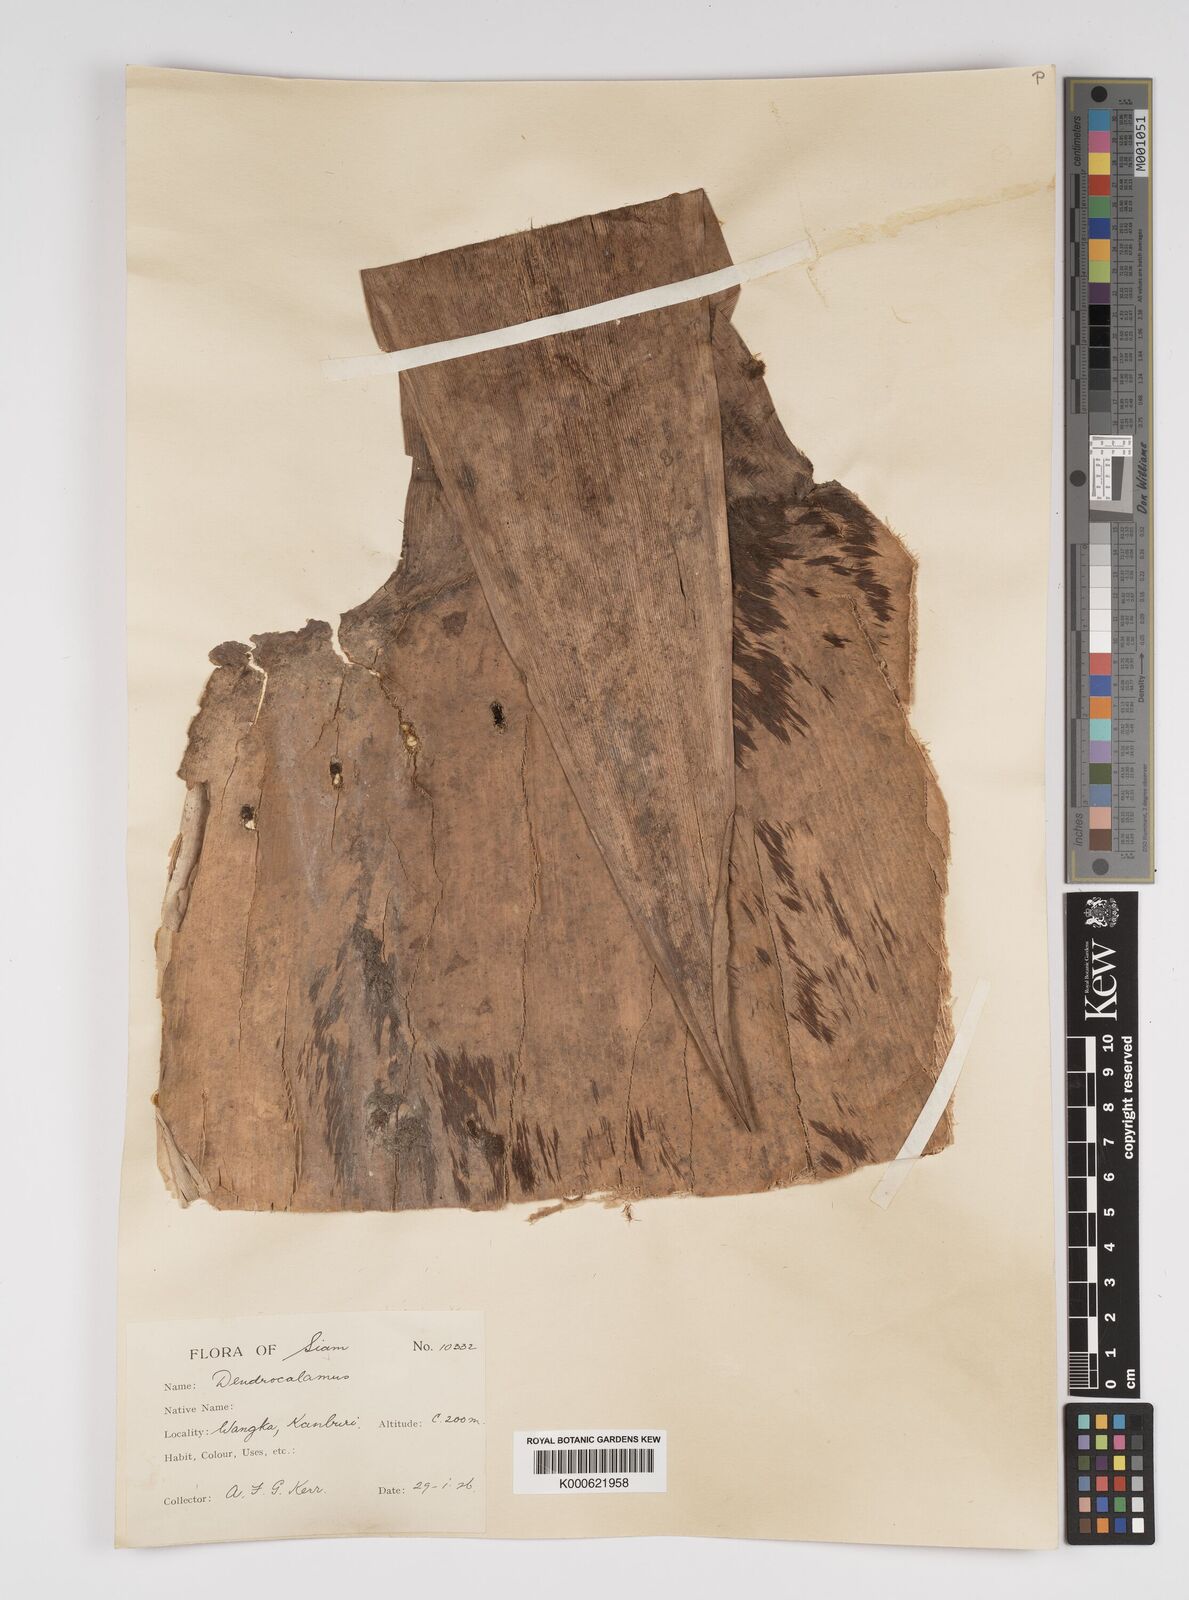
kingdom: Plantae
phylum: Tracheophyta
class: Liliopsida
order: Poales
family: Poaceae
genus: Bambusa
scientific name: Bambusa
